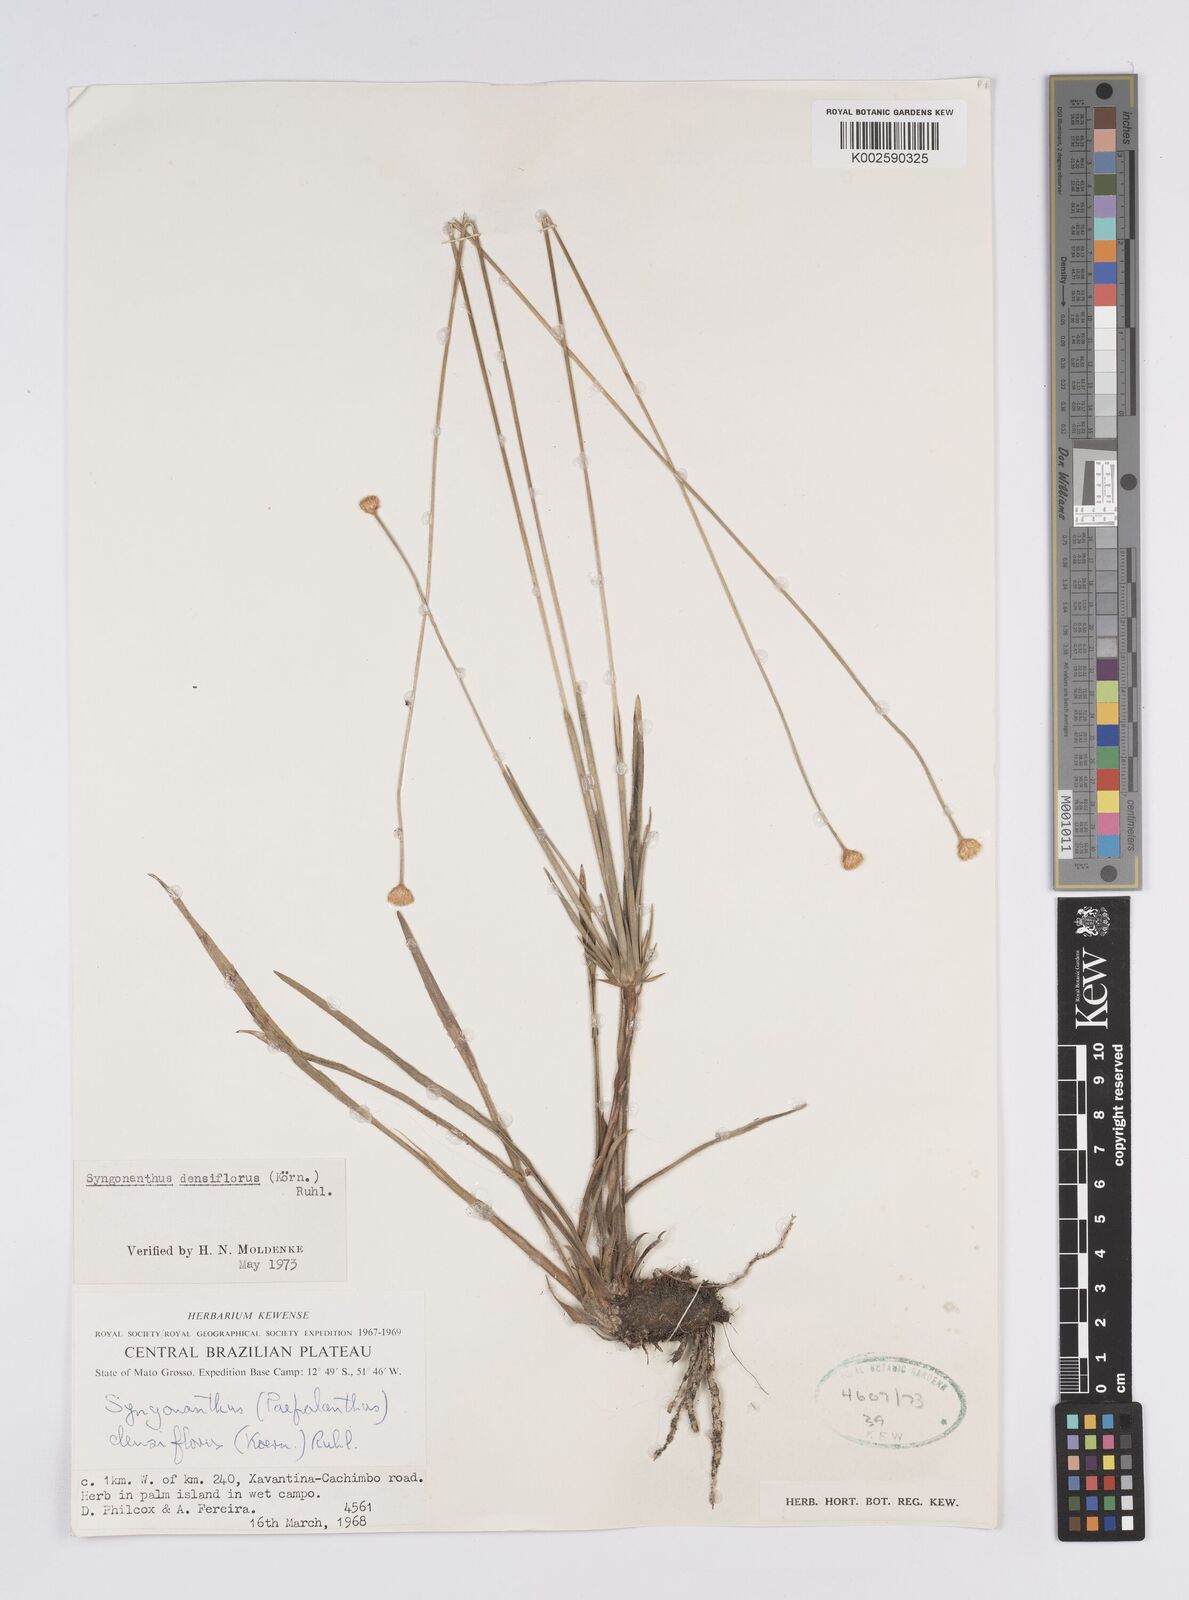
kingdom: Plantae
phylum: Tracheophyta
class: Liliopsida
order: Poales
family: Eriocaulaceae
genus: Syngonanthus
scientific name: Syngonanthus densiflorus
